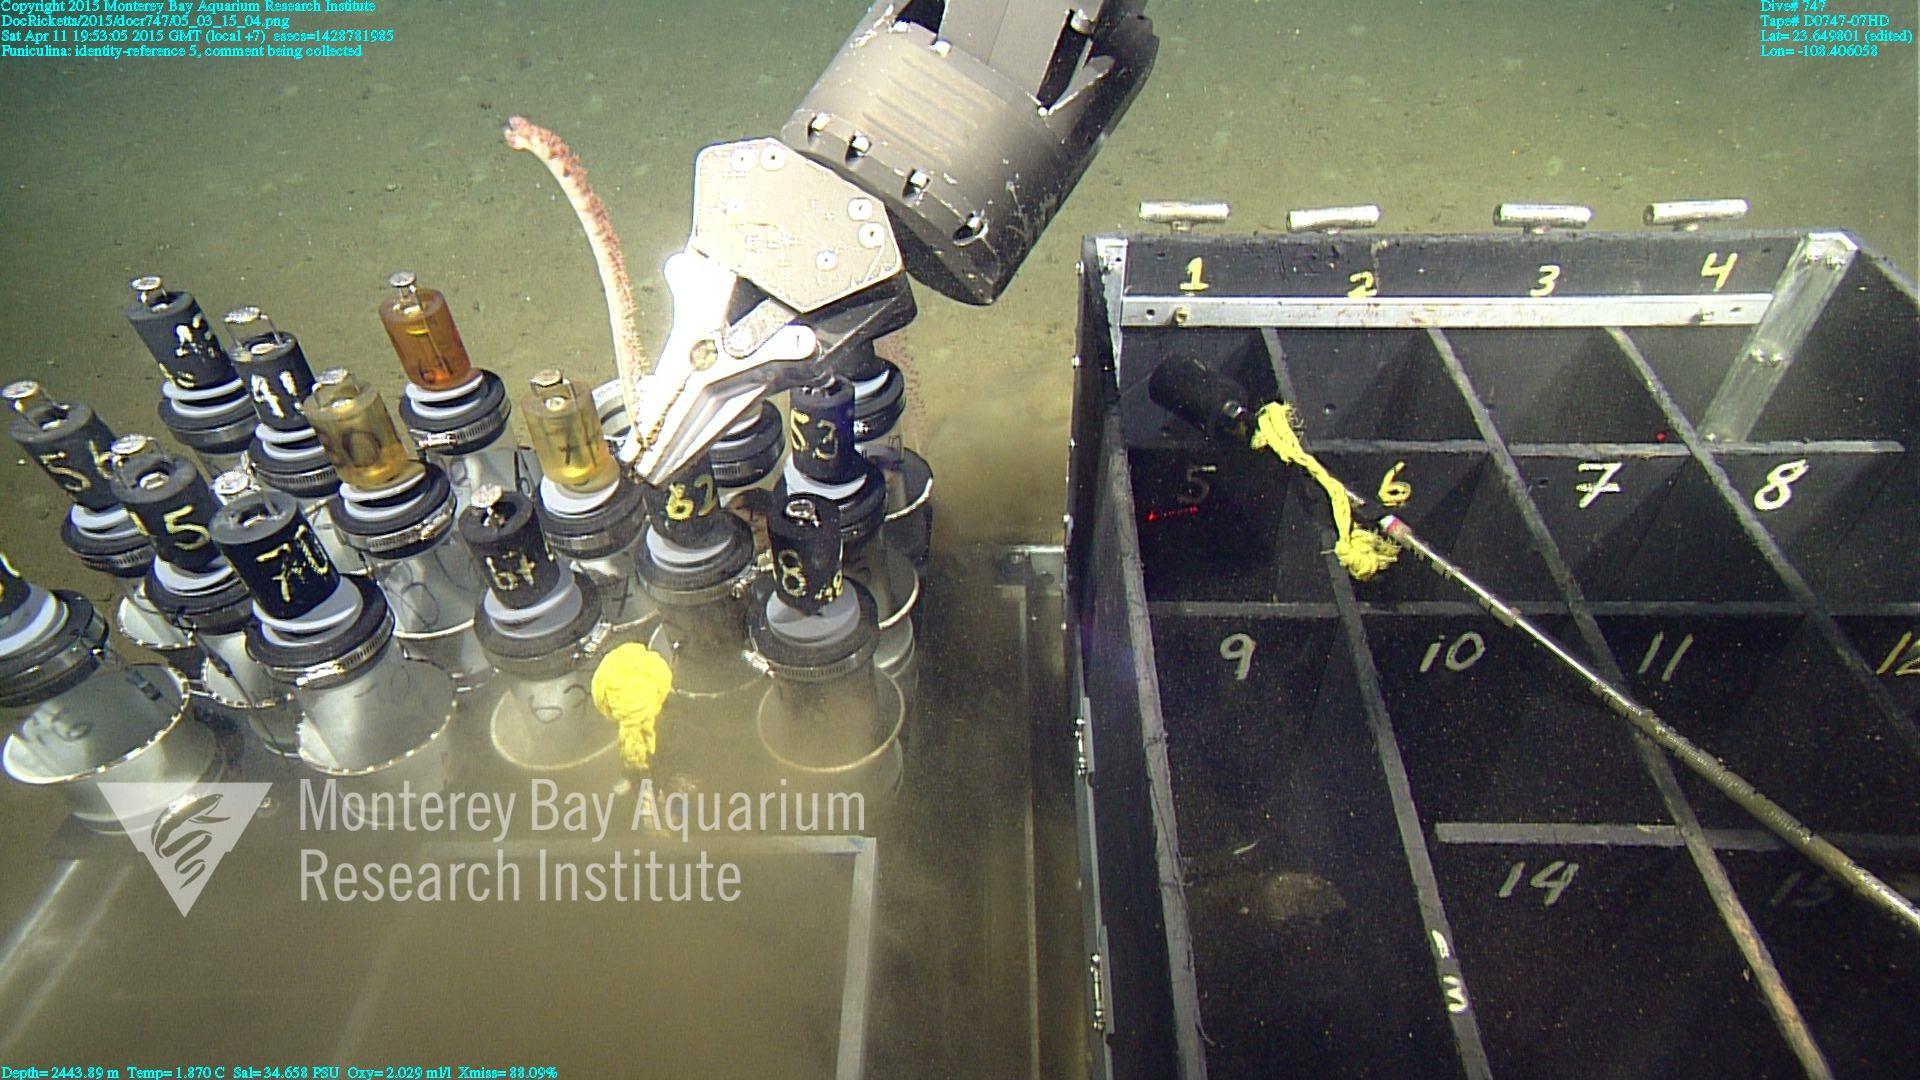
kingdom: Animalia
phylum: Cnidaria
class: Anthozoa
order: Scleralcyonacea
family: Funiculinidae
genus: Funiculina
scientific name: Funiculina
